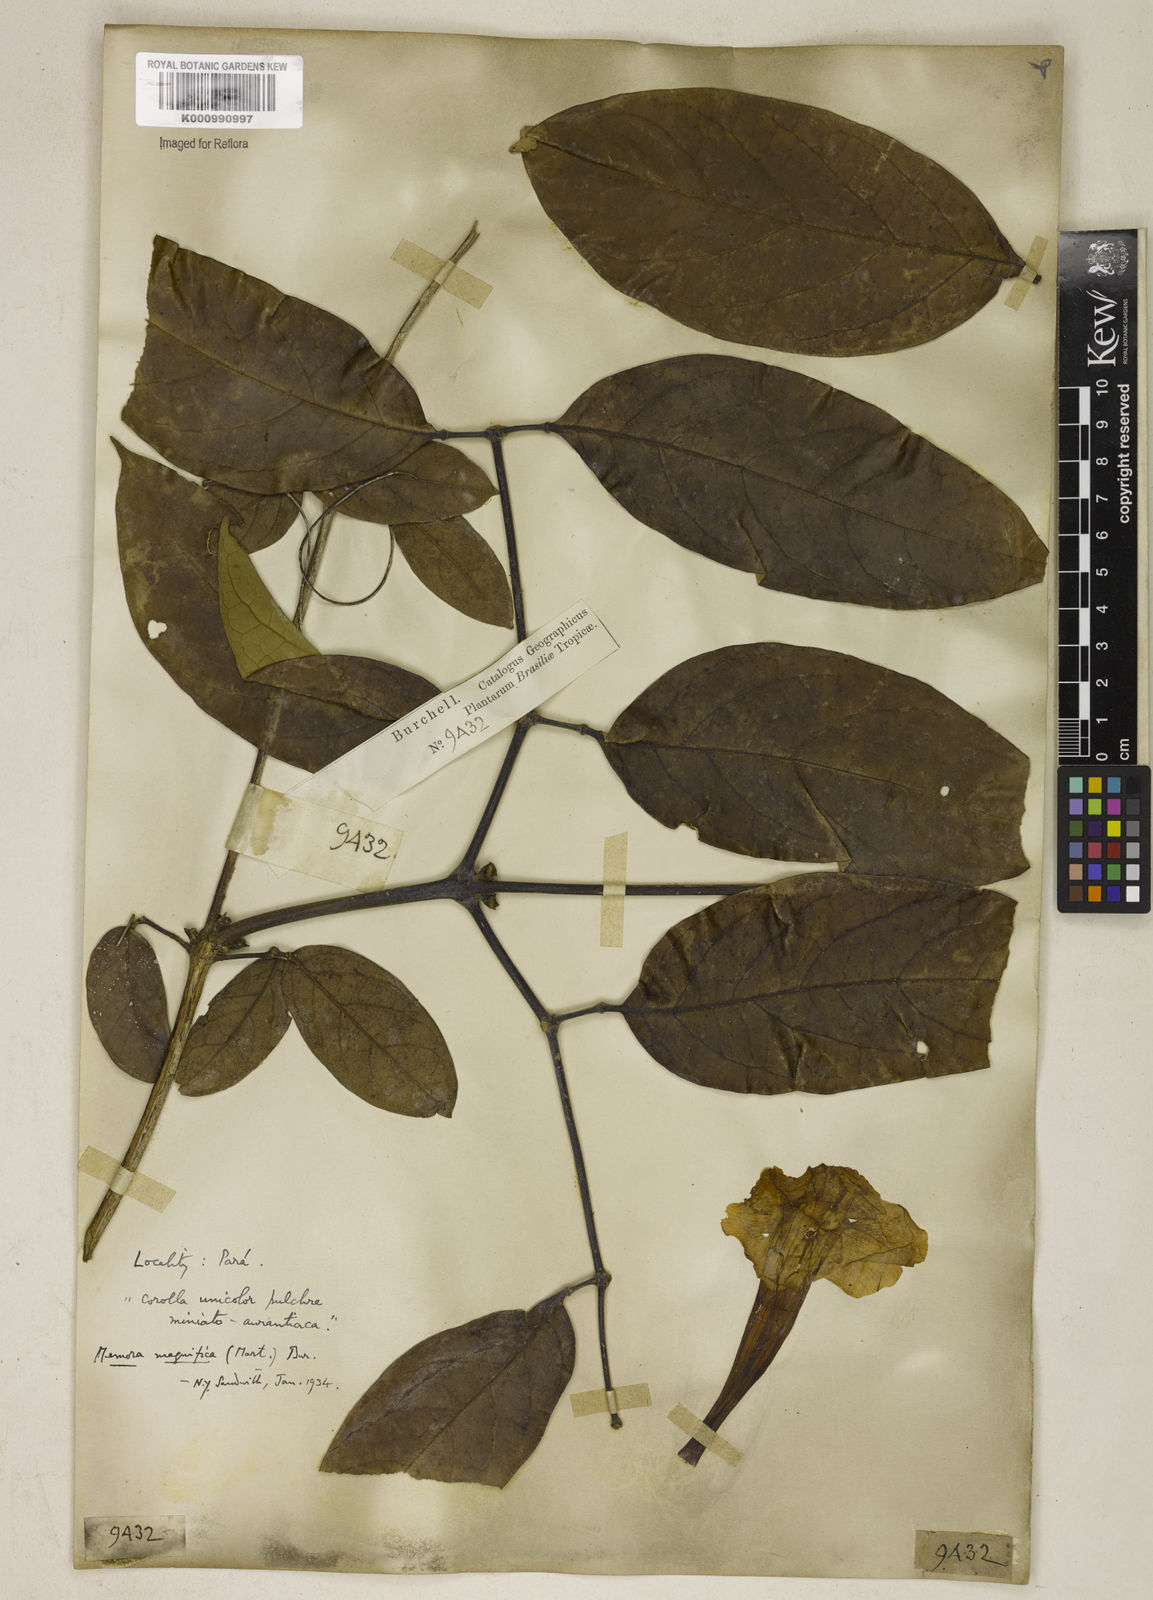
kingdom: Plantae
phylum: Tracheophyta
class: Magnoliopsida
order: Lamiales
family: Bignoniaceae
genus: Adenocalymma
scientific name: Adenocalymma magnificum
